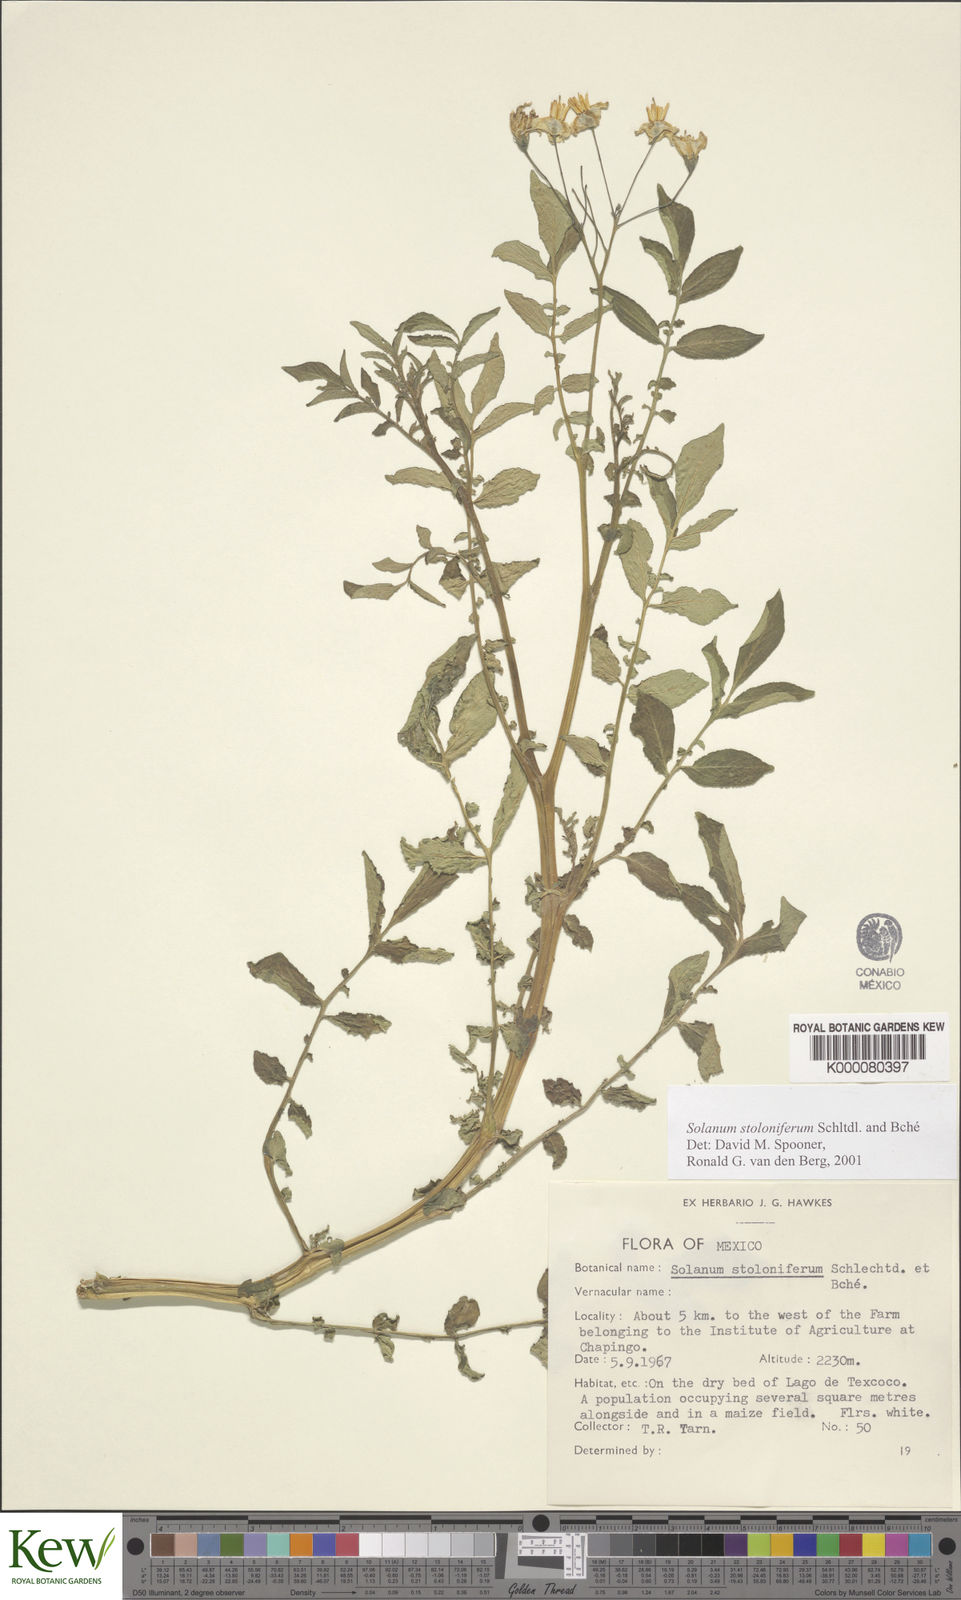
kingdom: Plantae
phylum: Tracheophyta
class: Magnoliopsida
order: Solanales
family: Solanaceae
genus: Solanum
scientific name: Solanum stoloniferum
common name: Fendler's nighshade
